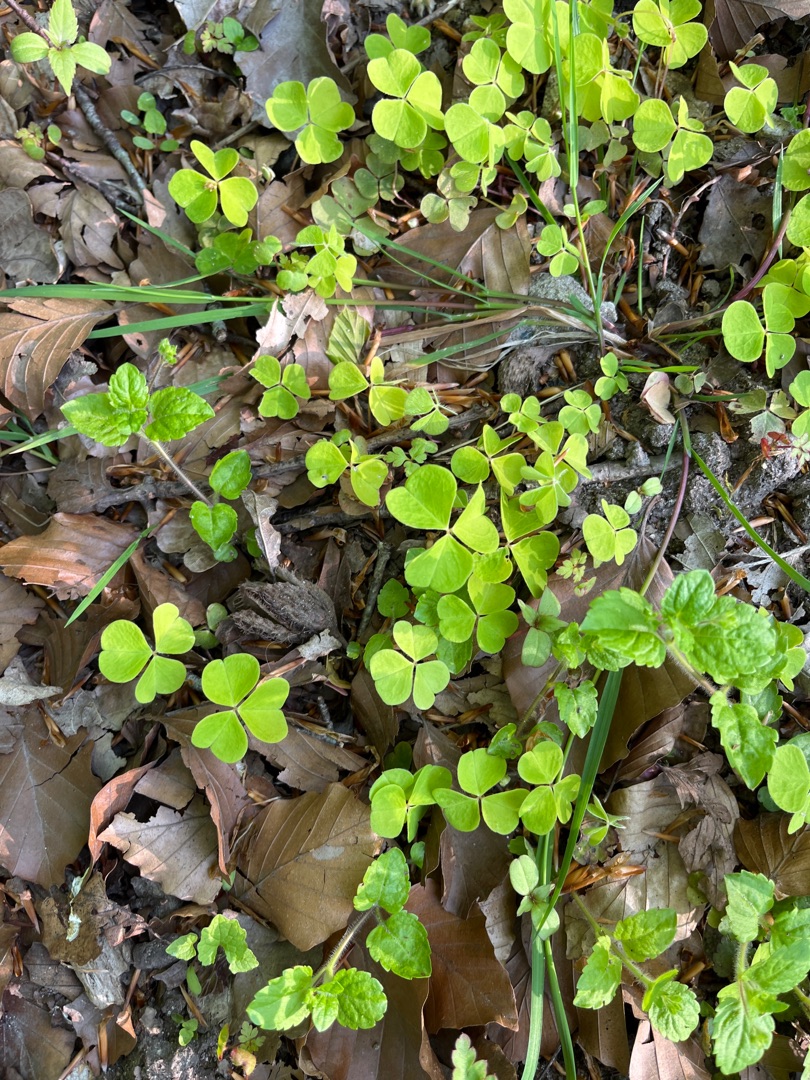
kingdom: Plantae
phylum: Tracheophyta
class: Magnoliopsida
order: Oxalidales
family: Oxalidaceae
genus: Oxalis
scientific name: Oxalis acetosella
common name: Skovsyre
